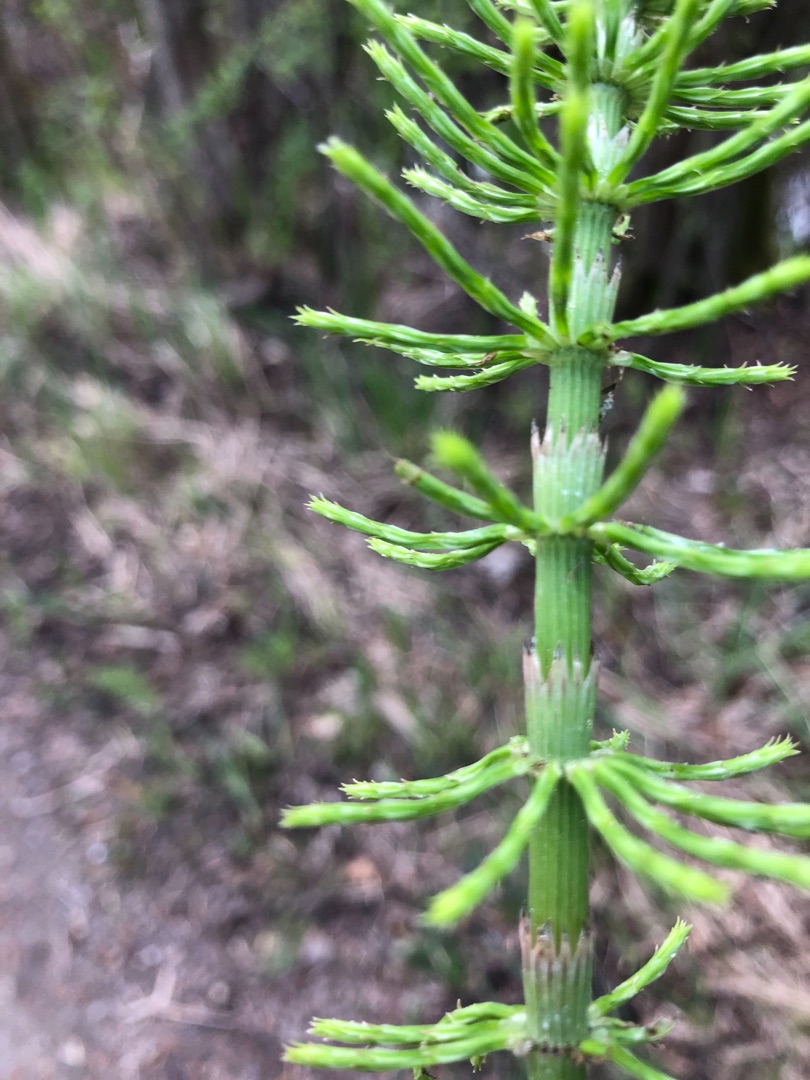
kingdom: Plantae
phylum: Tracheophyta
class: Polypodiopsida
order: Equisetales
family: Equisetaceae
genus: Equisetum
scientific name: Equisetum arvense
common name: Ager-padderok
